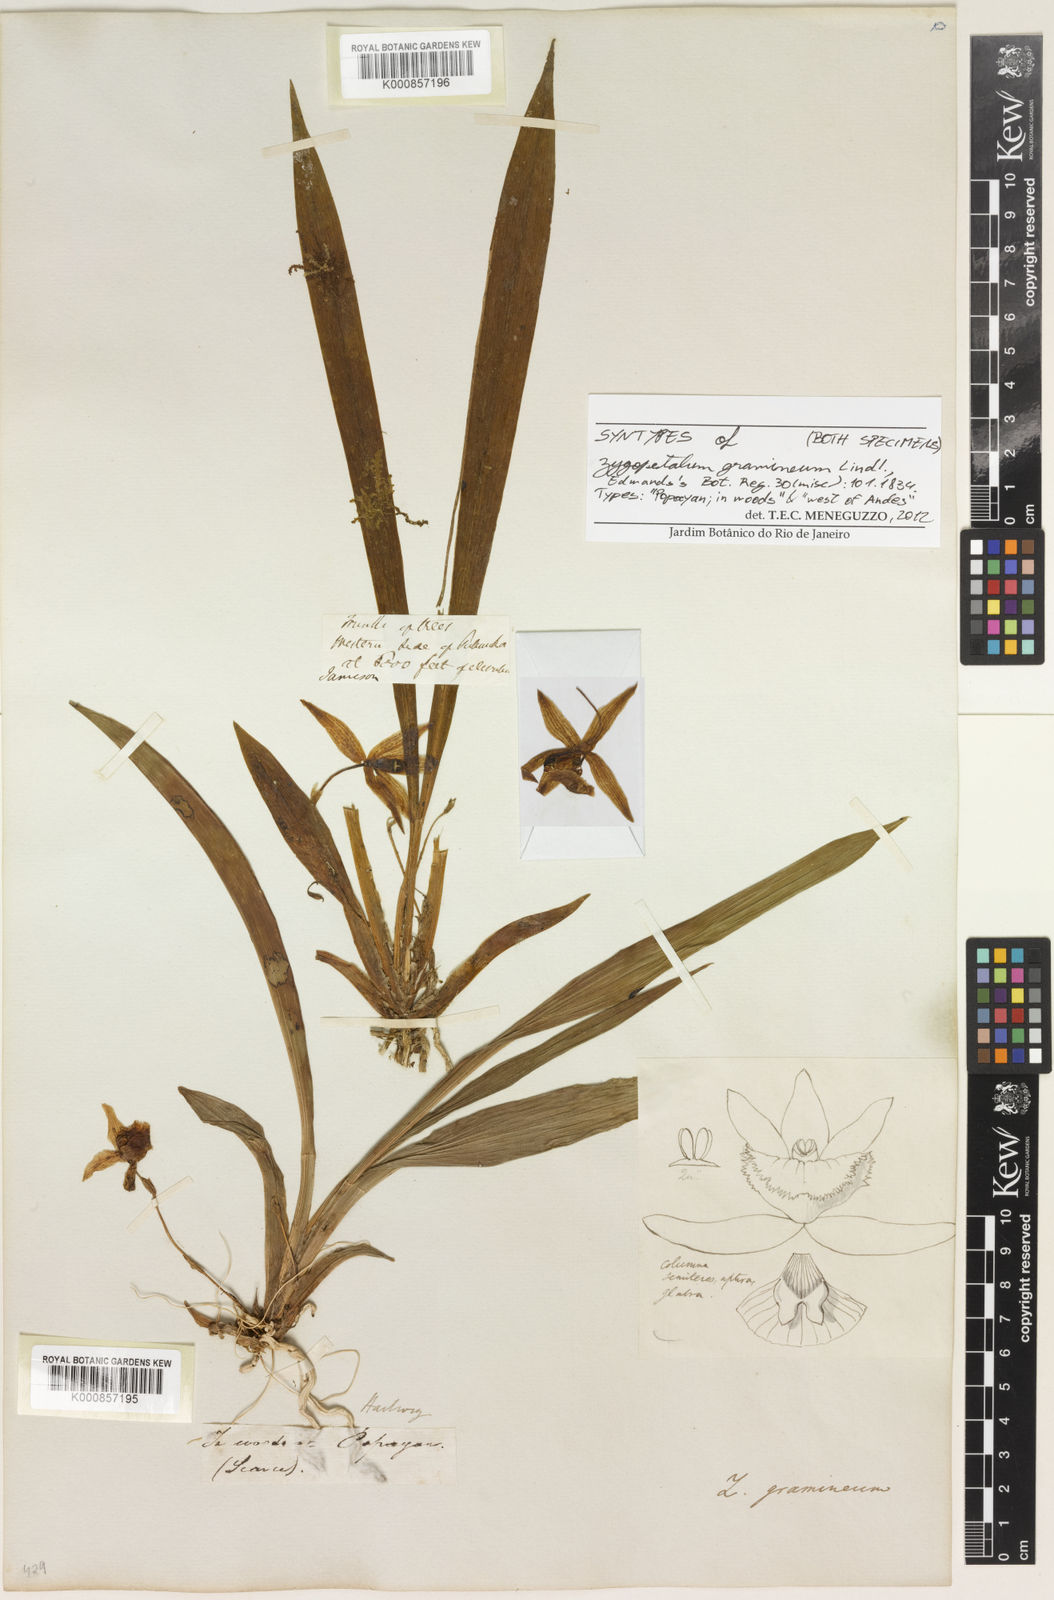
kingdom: Plantae
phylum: Tracheophyta
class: Liliopsida
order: Asparagales
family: Orchidaceae
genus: Kefersteinia
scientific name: Kefersteinia graminea
